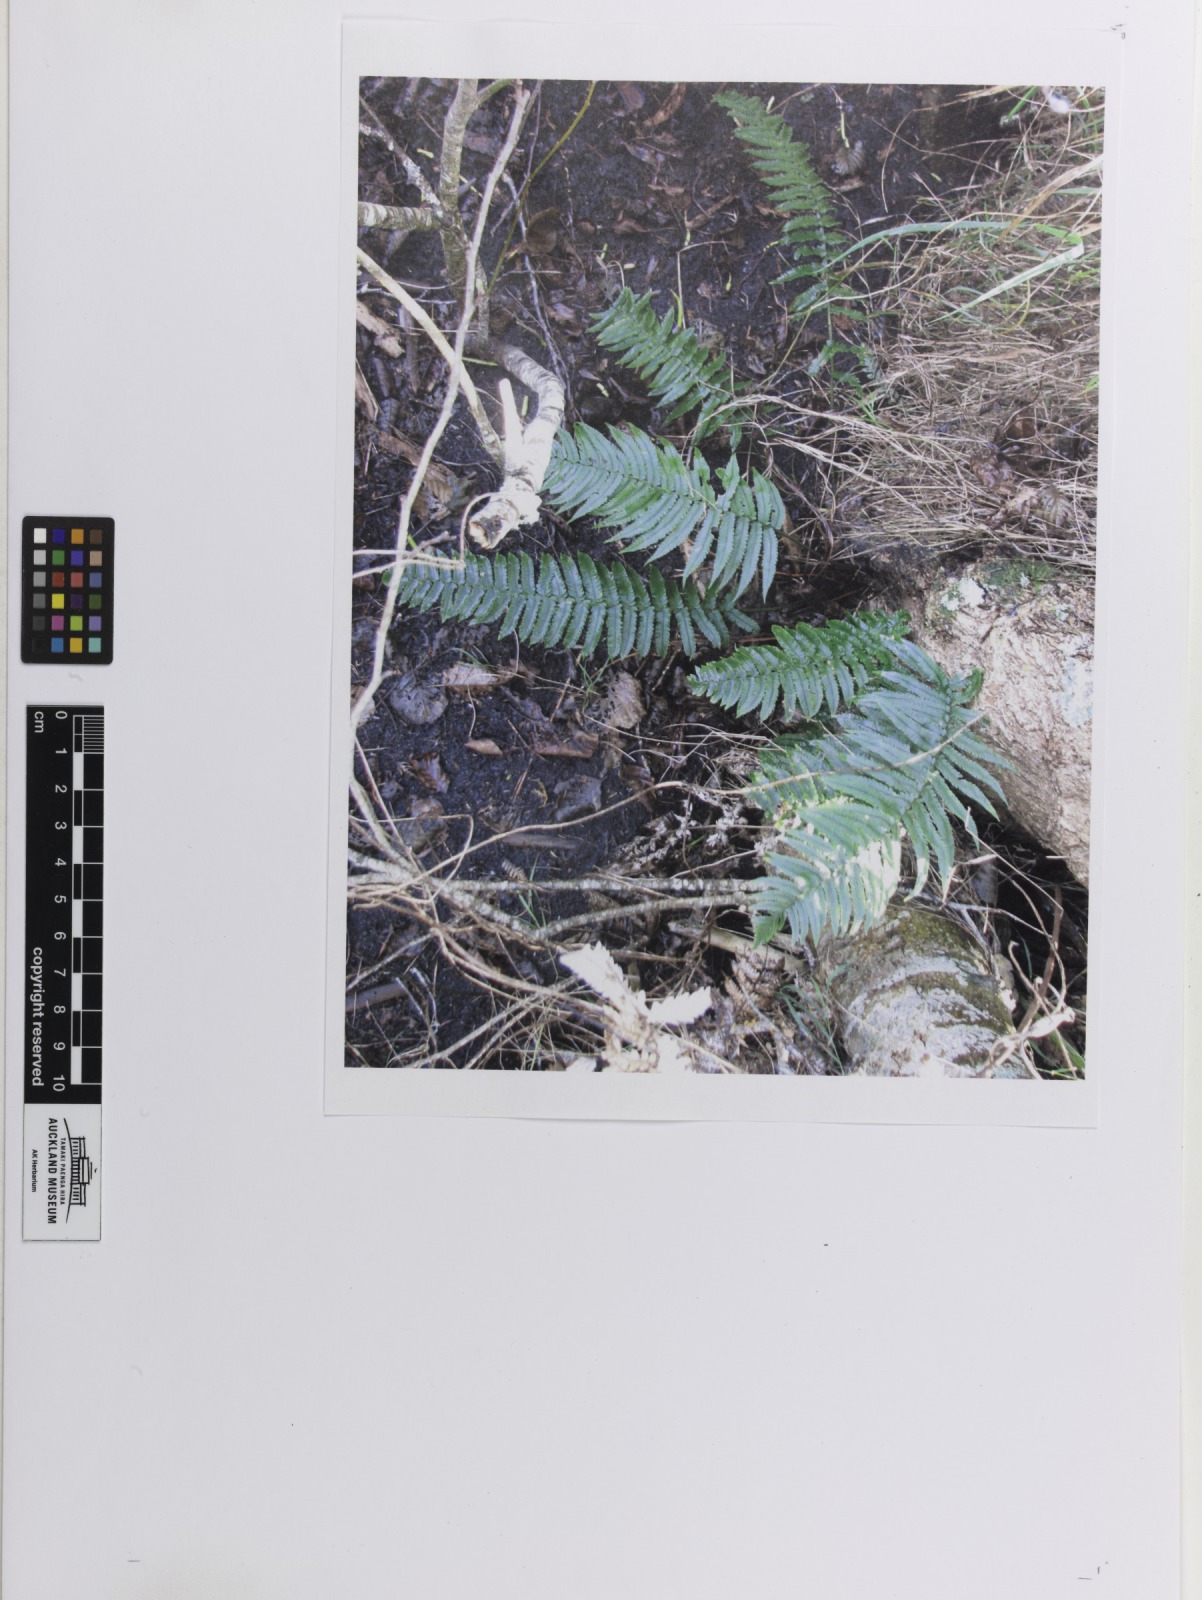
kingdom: Plantae
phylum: Tracheophyta
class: Polypodiopsida
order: Polypodiales
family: Dryopteridaceae
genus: Dryopteris
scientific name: Dryopteris cycadina
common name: Shaggy wood fern
